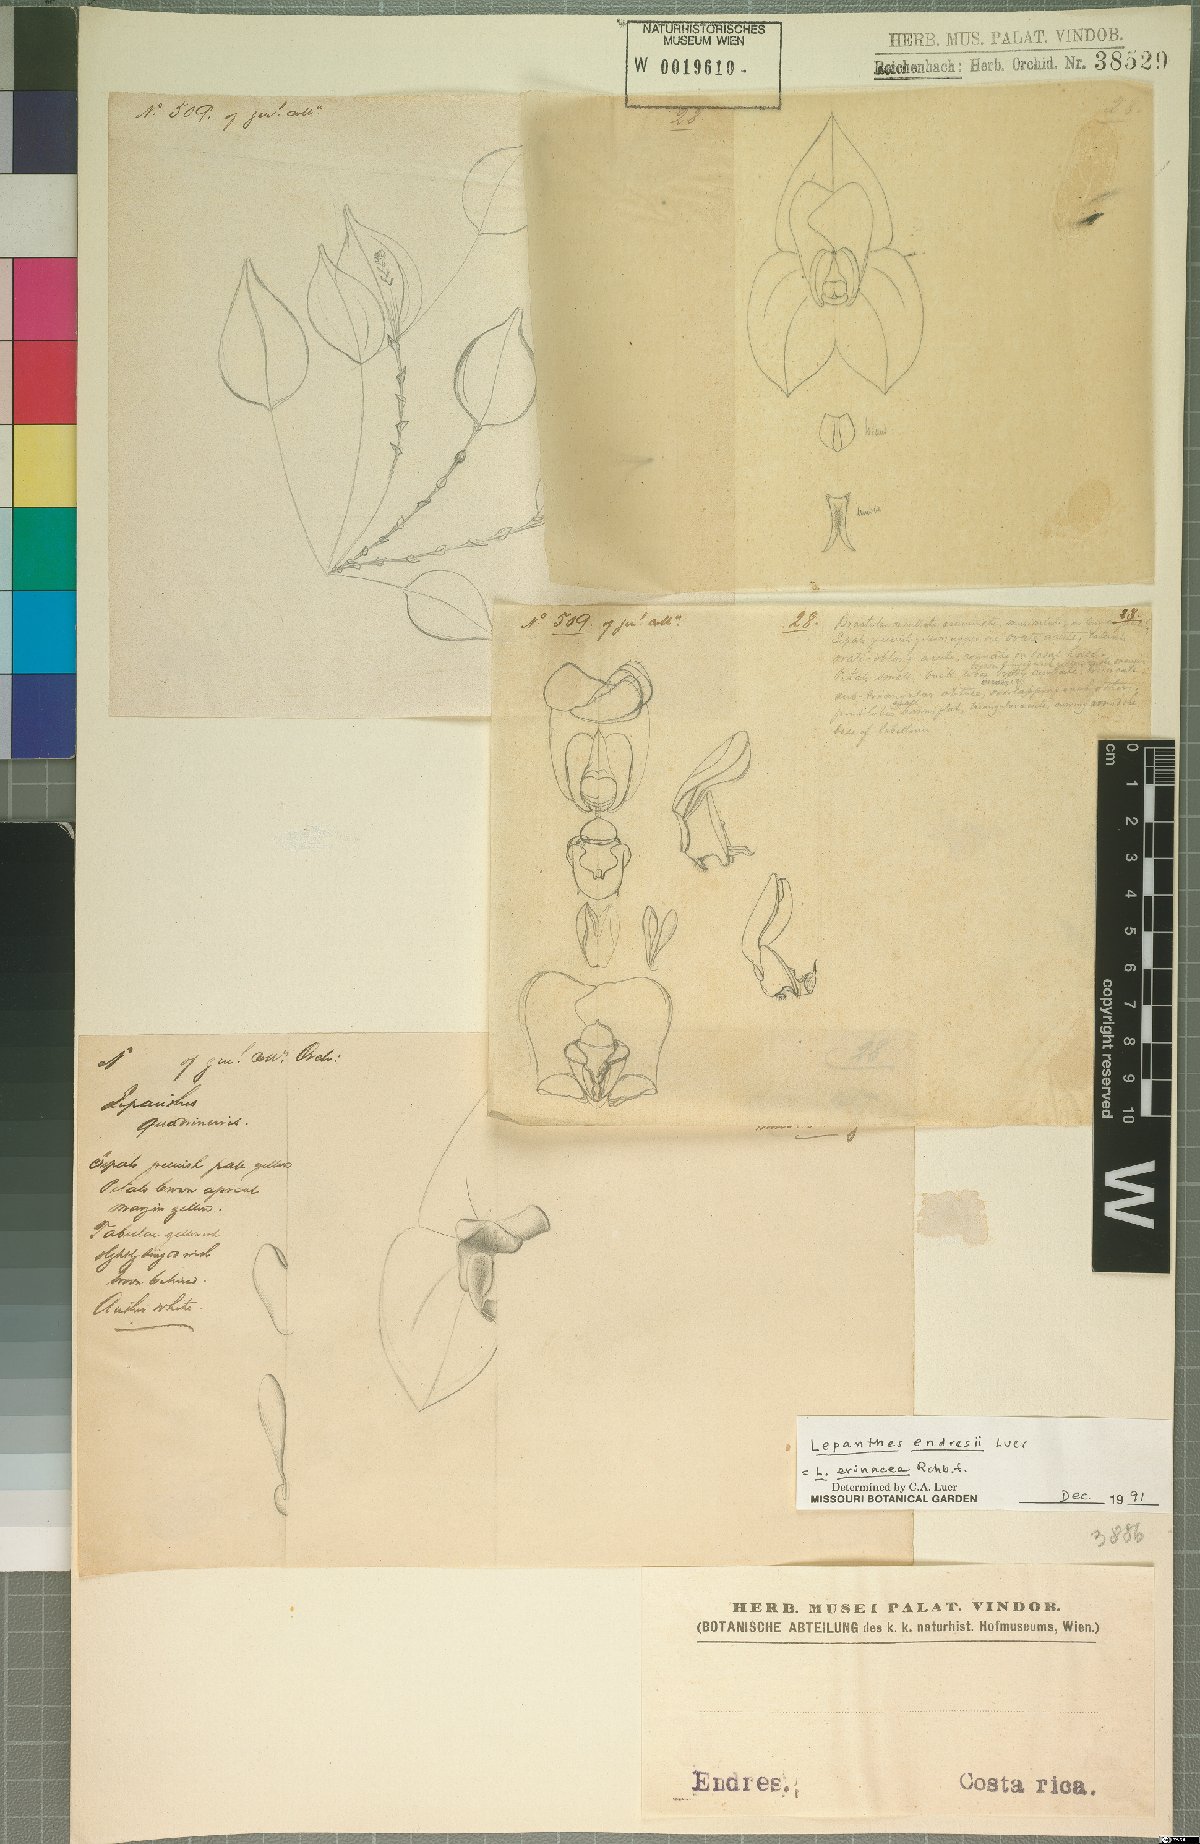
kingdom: Plantae
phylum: Tracheophyta
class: Liliopsida
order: Asparagales
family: Orchidaceae
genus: Lepanthes
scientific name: Lepanthes erinacea
